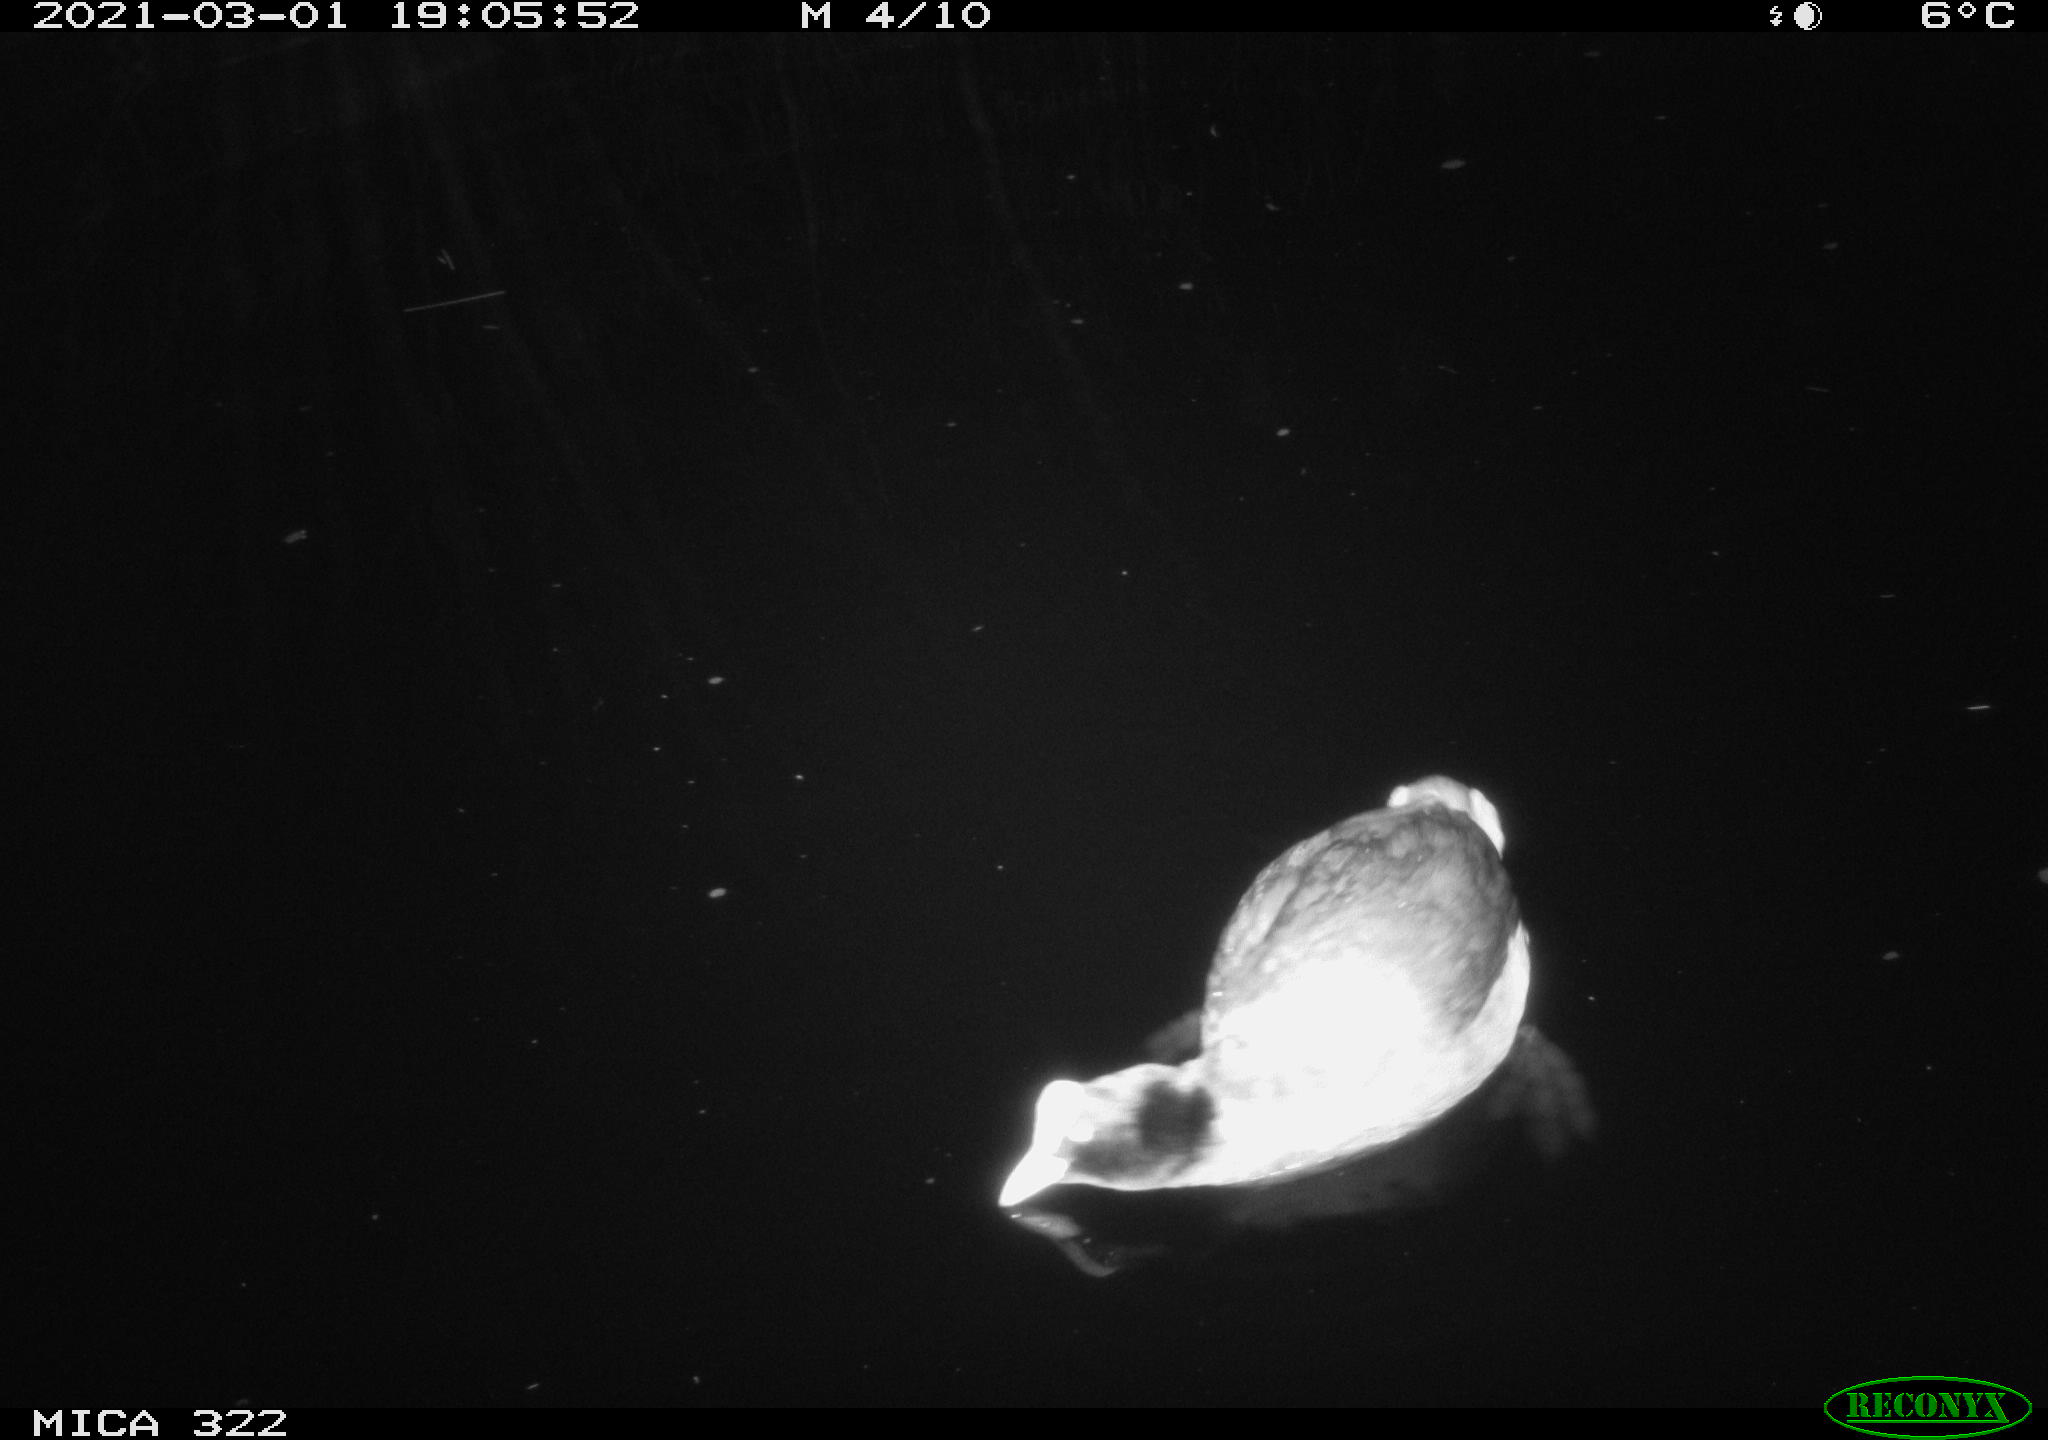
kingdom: Animalia
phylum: Chordata
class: Aves
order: Gruiformes
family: Rallidae
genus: Fulica
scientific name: Fulica atra
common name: Eurasian coot
